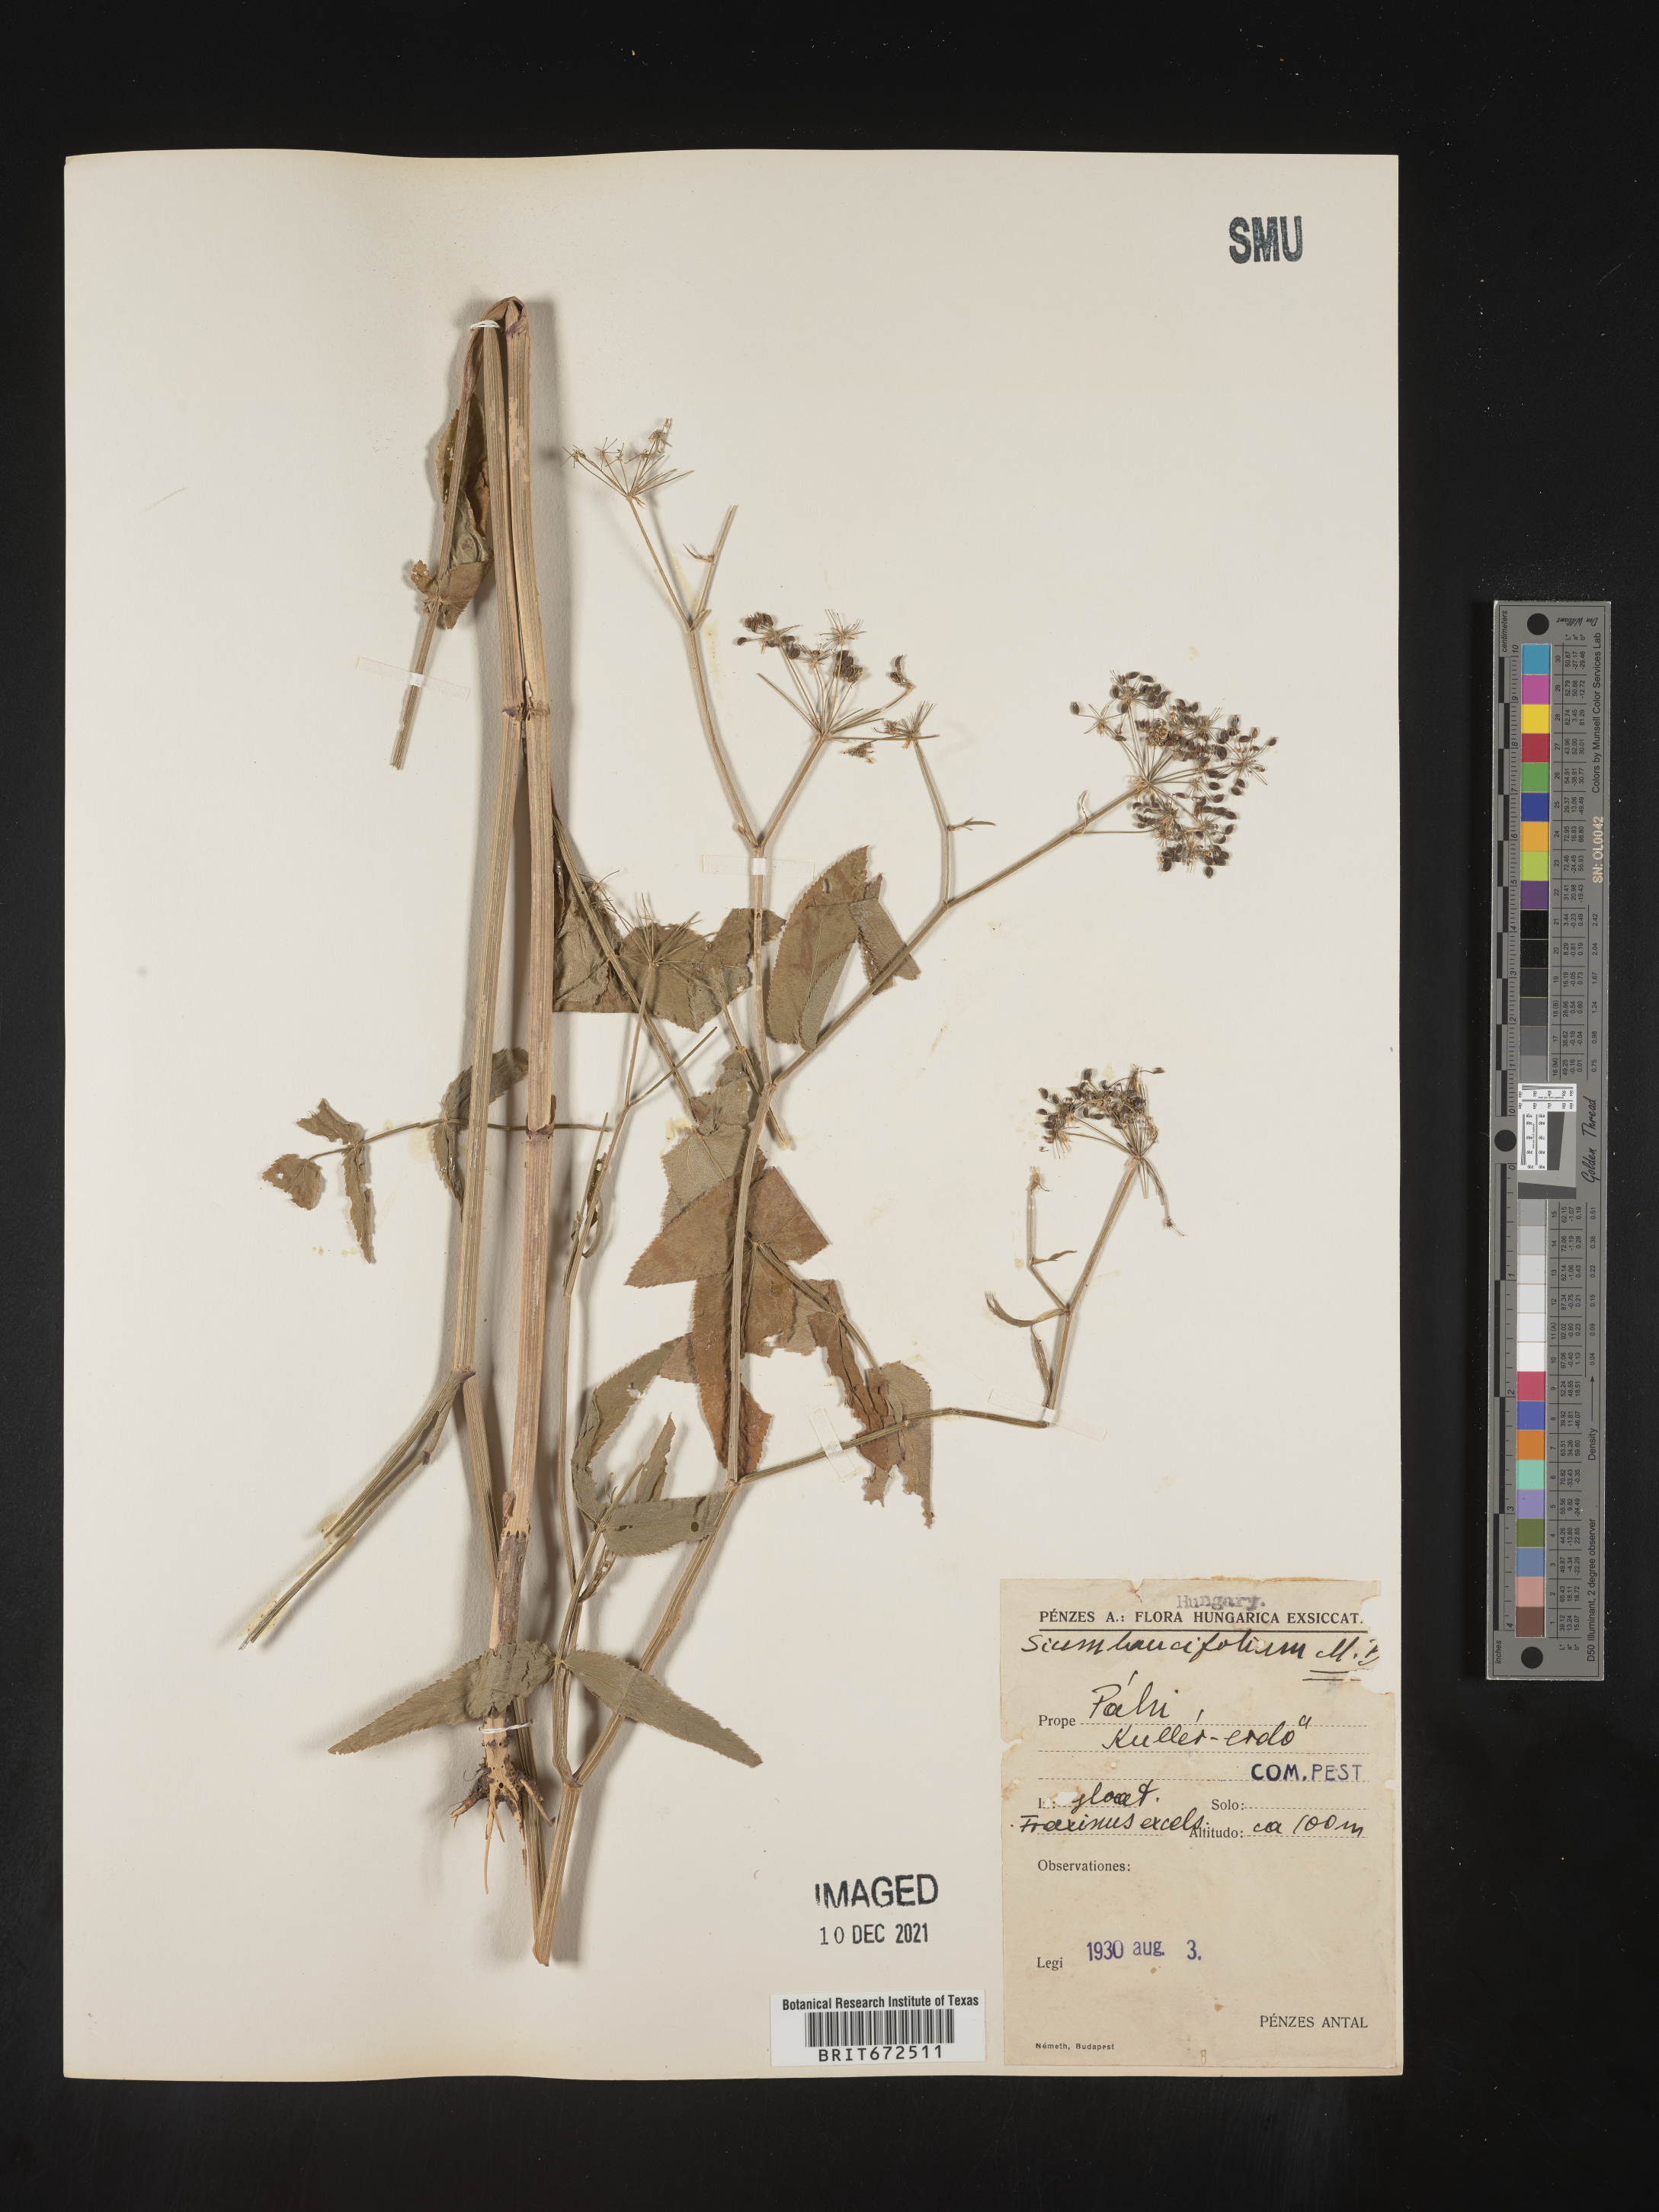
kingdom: Plantae
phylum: Tracheophyta
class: Magnoliopsida
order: Apiales
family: Apiaceae
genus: Sium
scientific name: Sium
